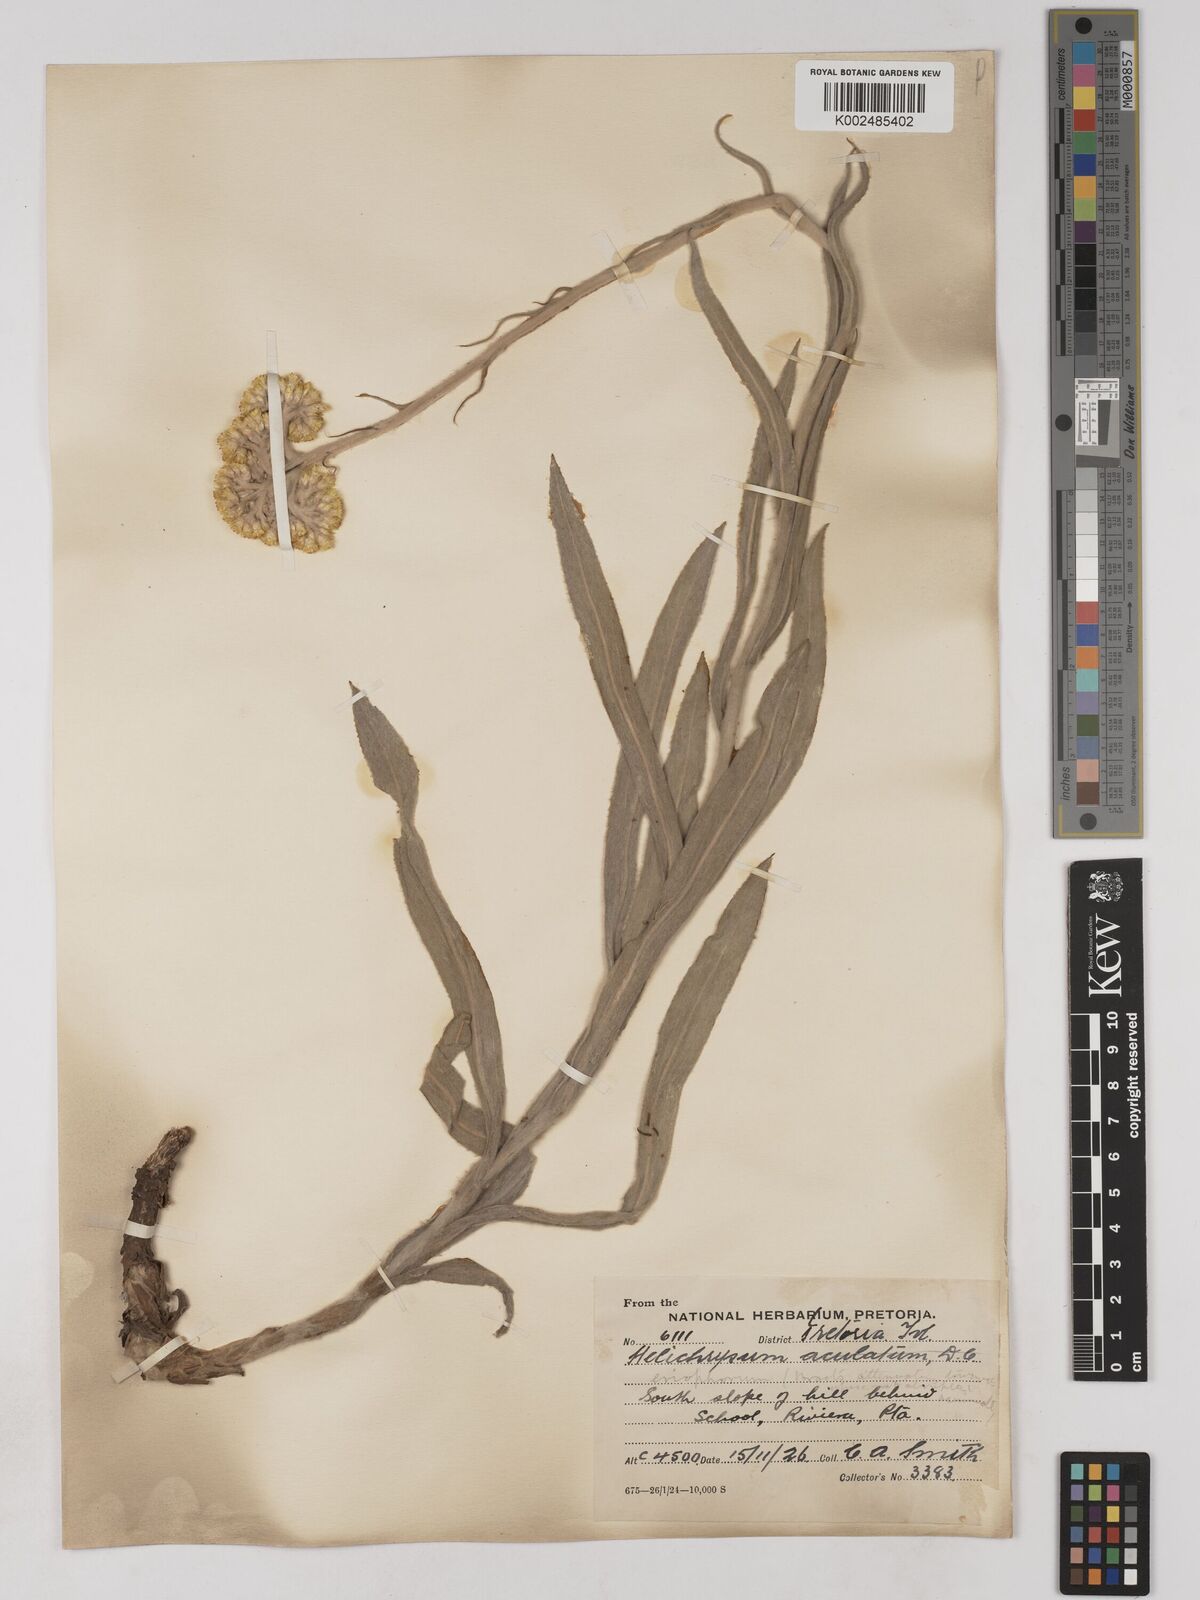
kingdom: Plantae
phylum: Tracheophyta
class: Magnoliopsida
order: Asterales
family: Asteraceae
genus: Helichrysum
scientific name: Helichrysum acutatum
